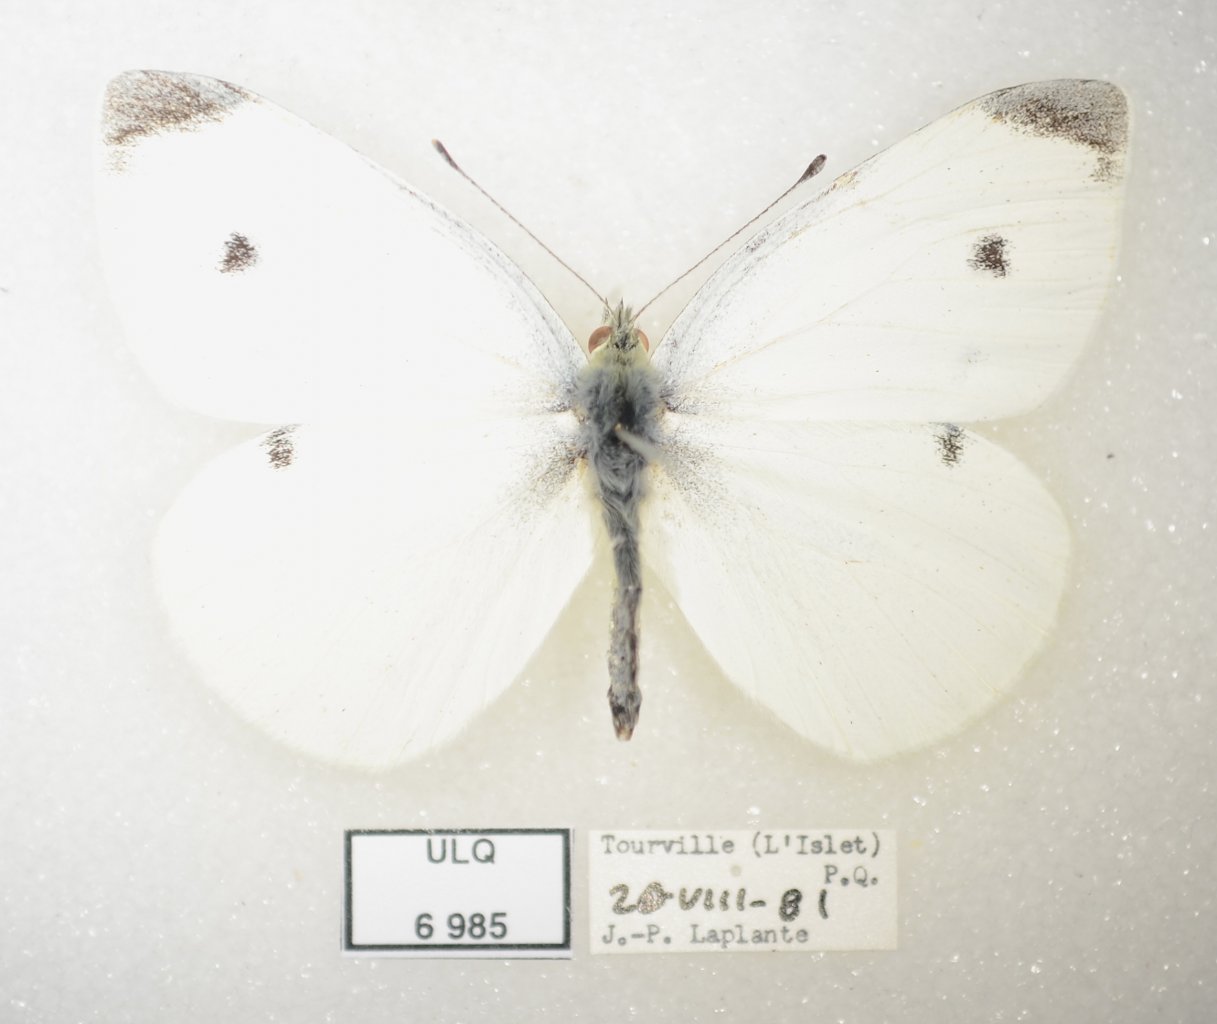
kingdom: Animalia
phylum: Arthropoda
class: Insecta
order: Lepidoptera
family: Pieridae
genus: Pieris
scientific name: Pieris rapae
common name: Cabbage White
